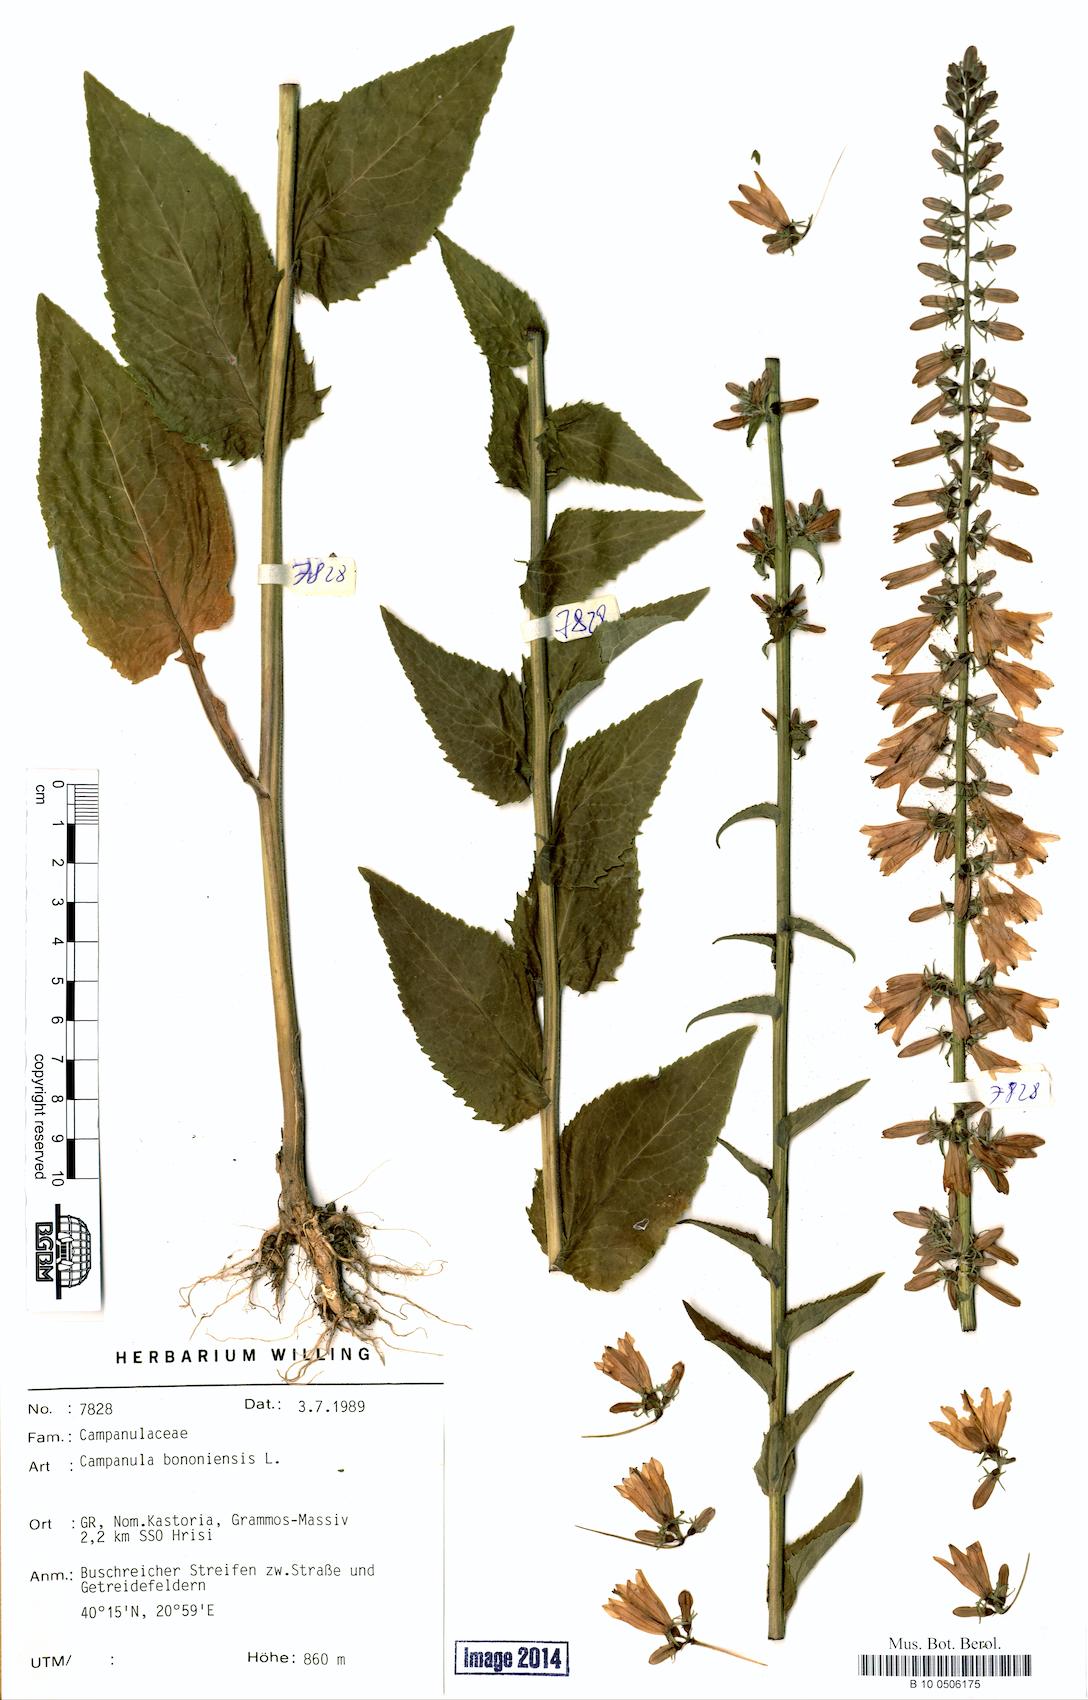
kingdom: Plantae
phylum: Tracheophyta
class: Magnoliopsida
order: Asterales
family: Campanulaceae
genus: Campanula
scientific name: Campanula bononiensis
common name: Pale bellflower
